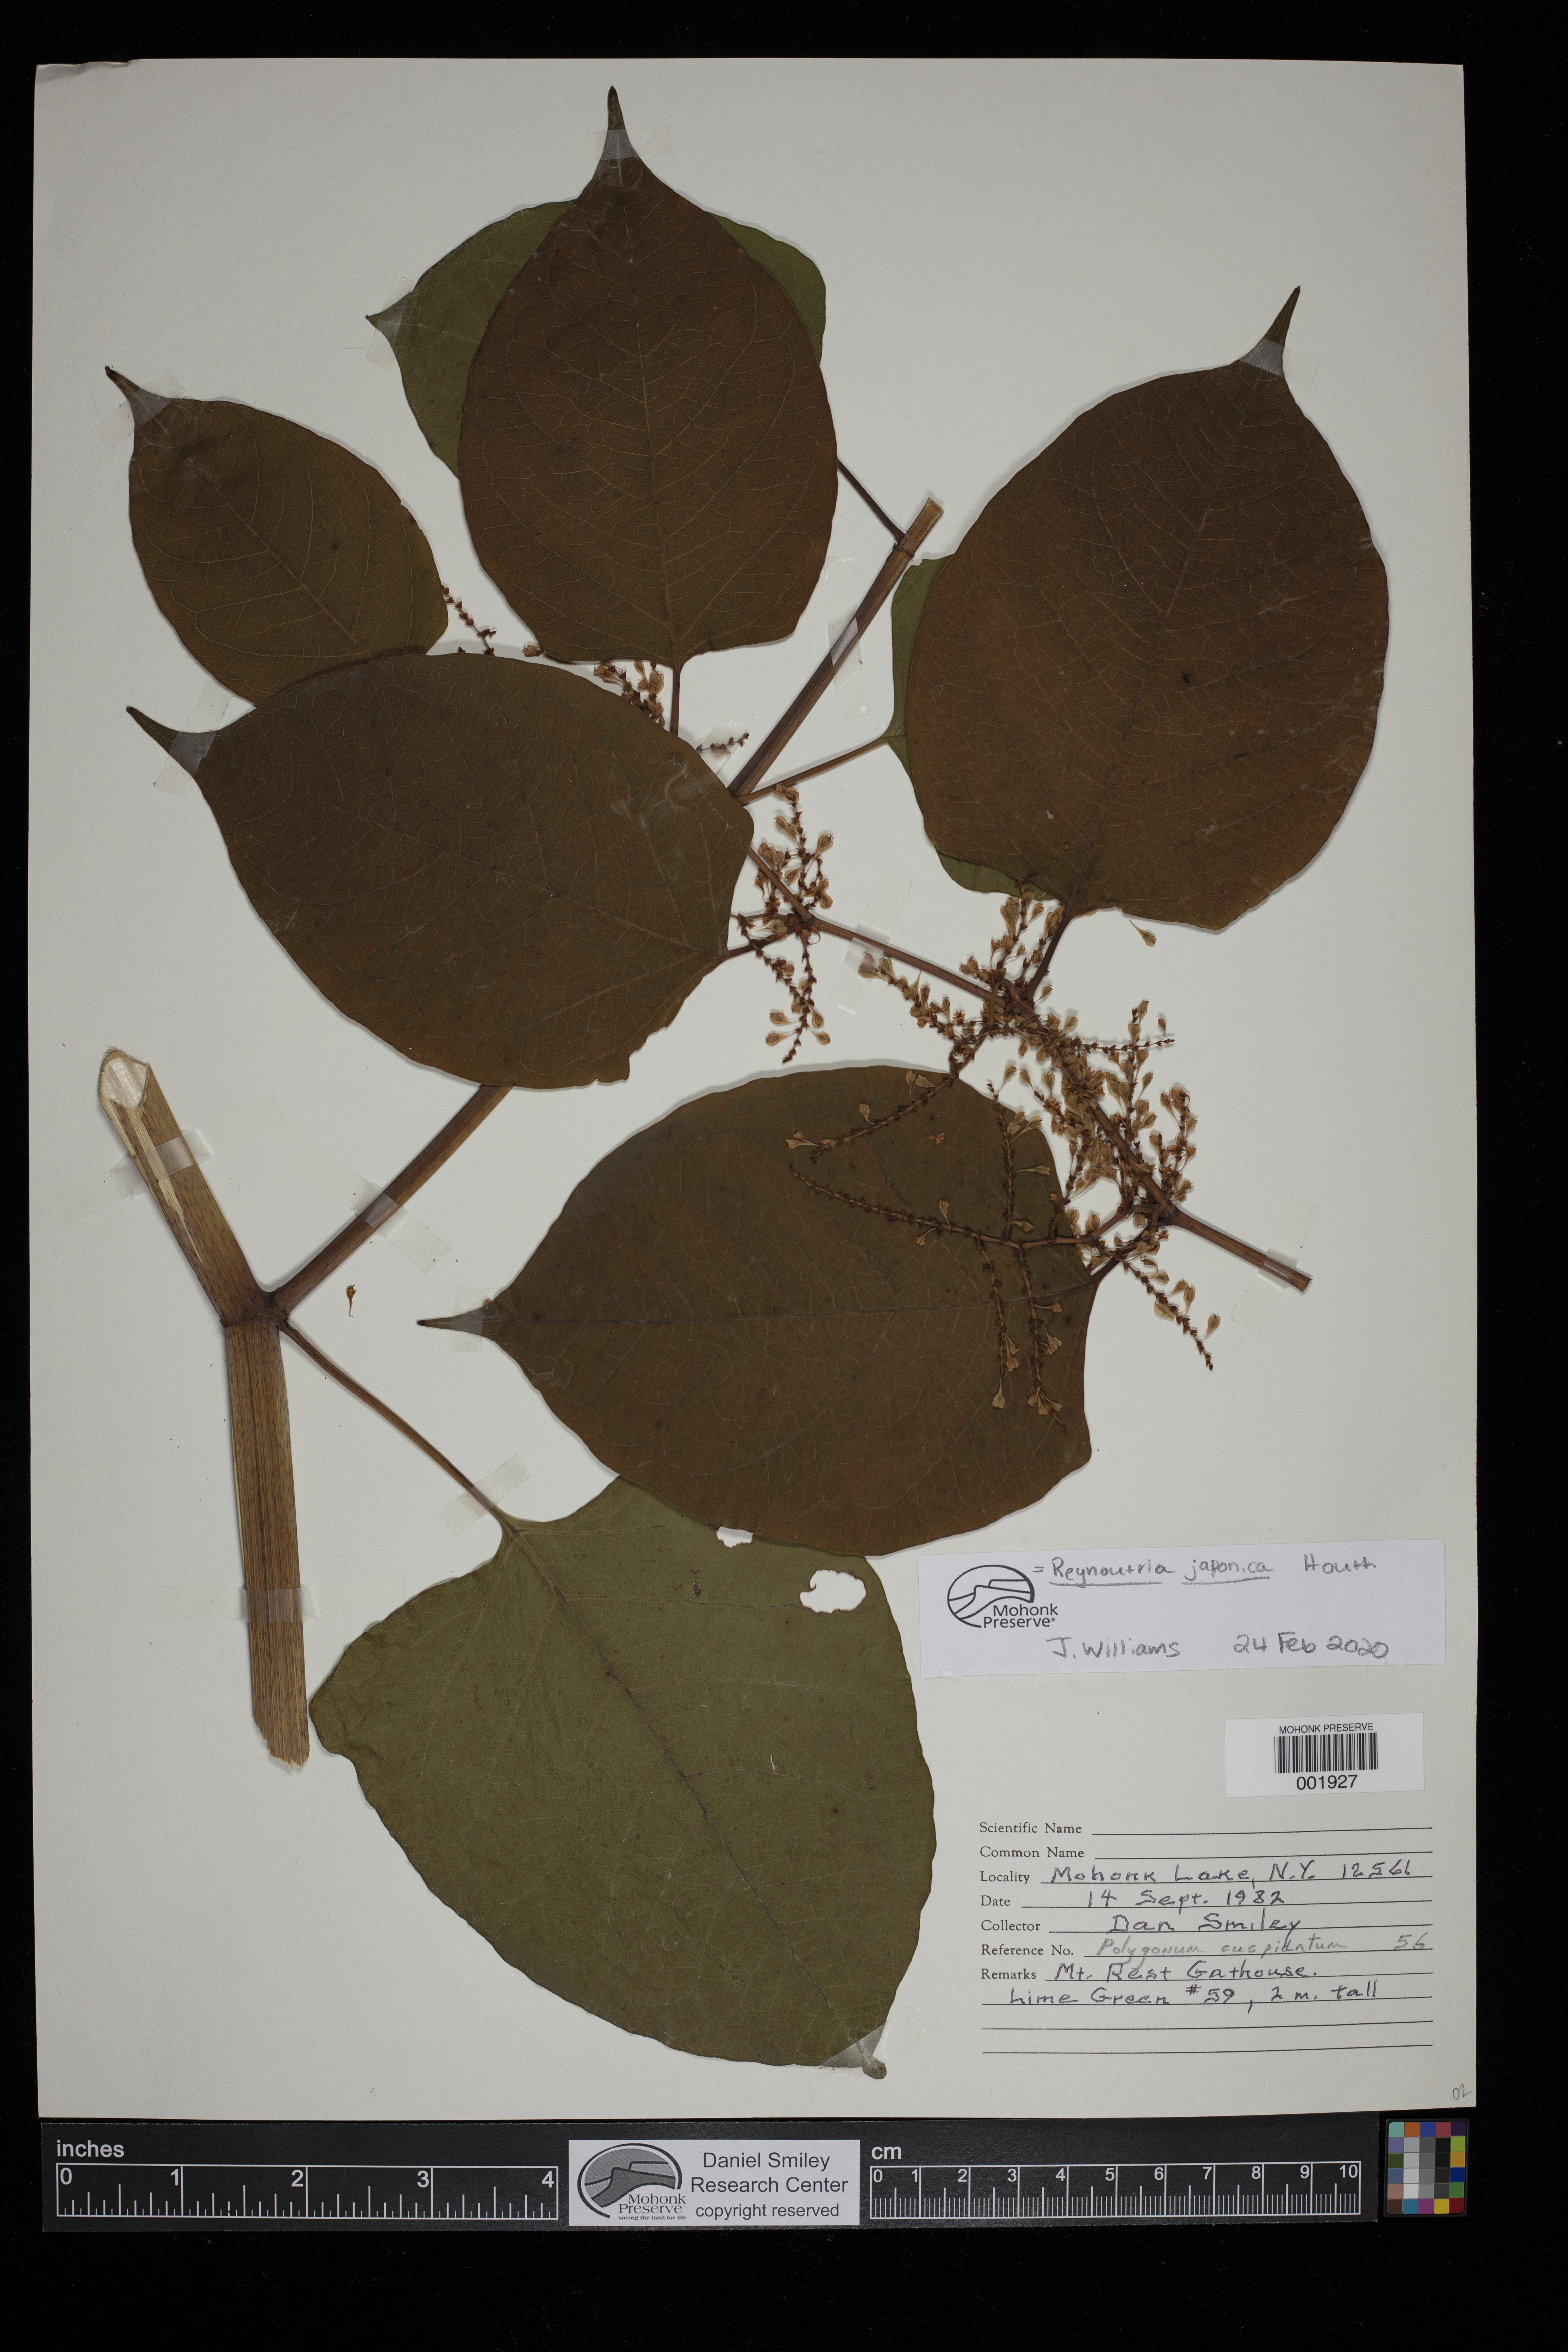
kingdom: Plantae
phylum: Tracheophyta
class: Magnoliopsida
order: Caryophyllales
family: Polygonaceae
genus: Reynoutria
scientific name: Reynoutria japonica
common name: Japanese knotweed
